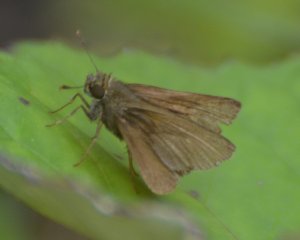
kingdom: Animalia
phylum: Arthropoda
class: Insecta
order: Lepidoptera
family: Hesperiidae
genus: Euphyes
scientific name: Euphyes vestris
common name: Dun Skipper
